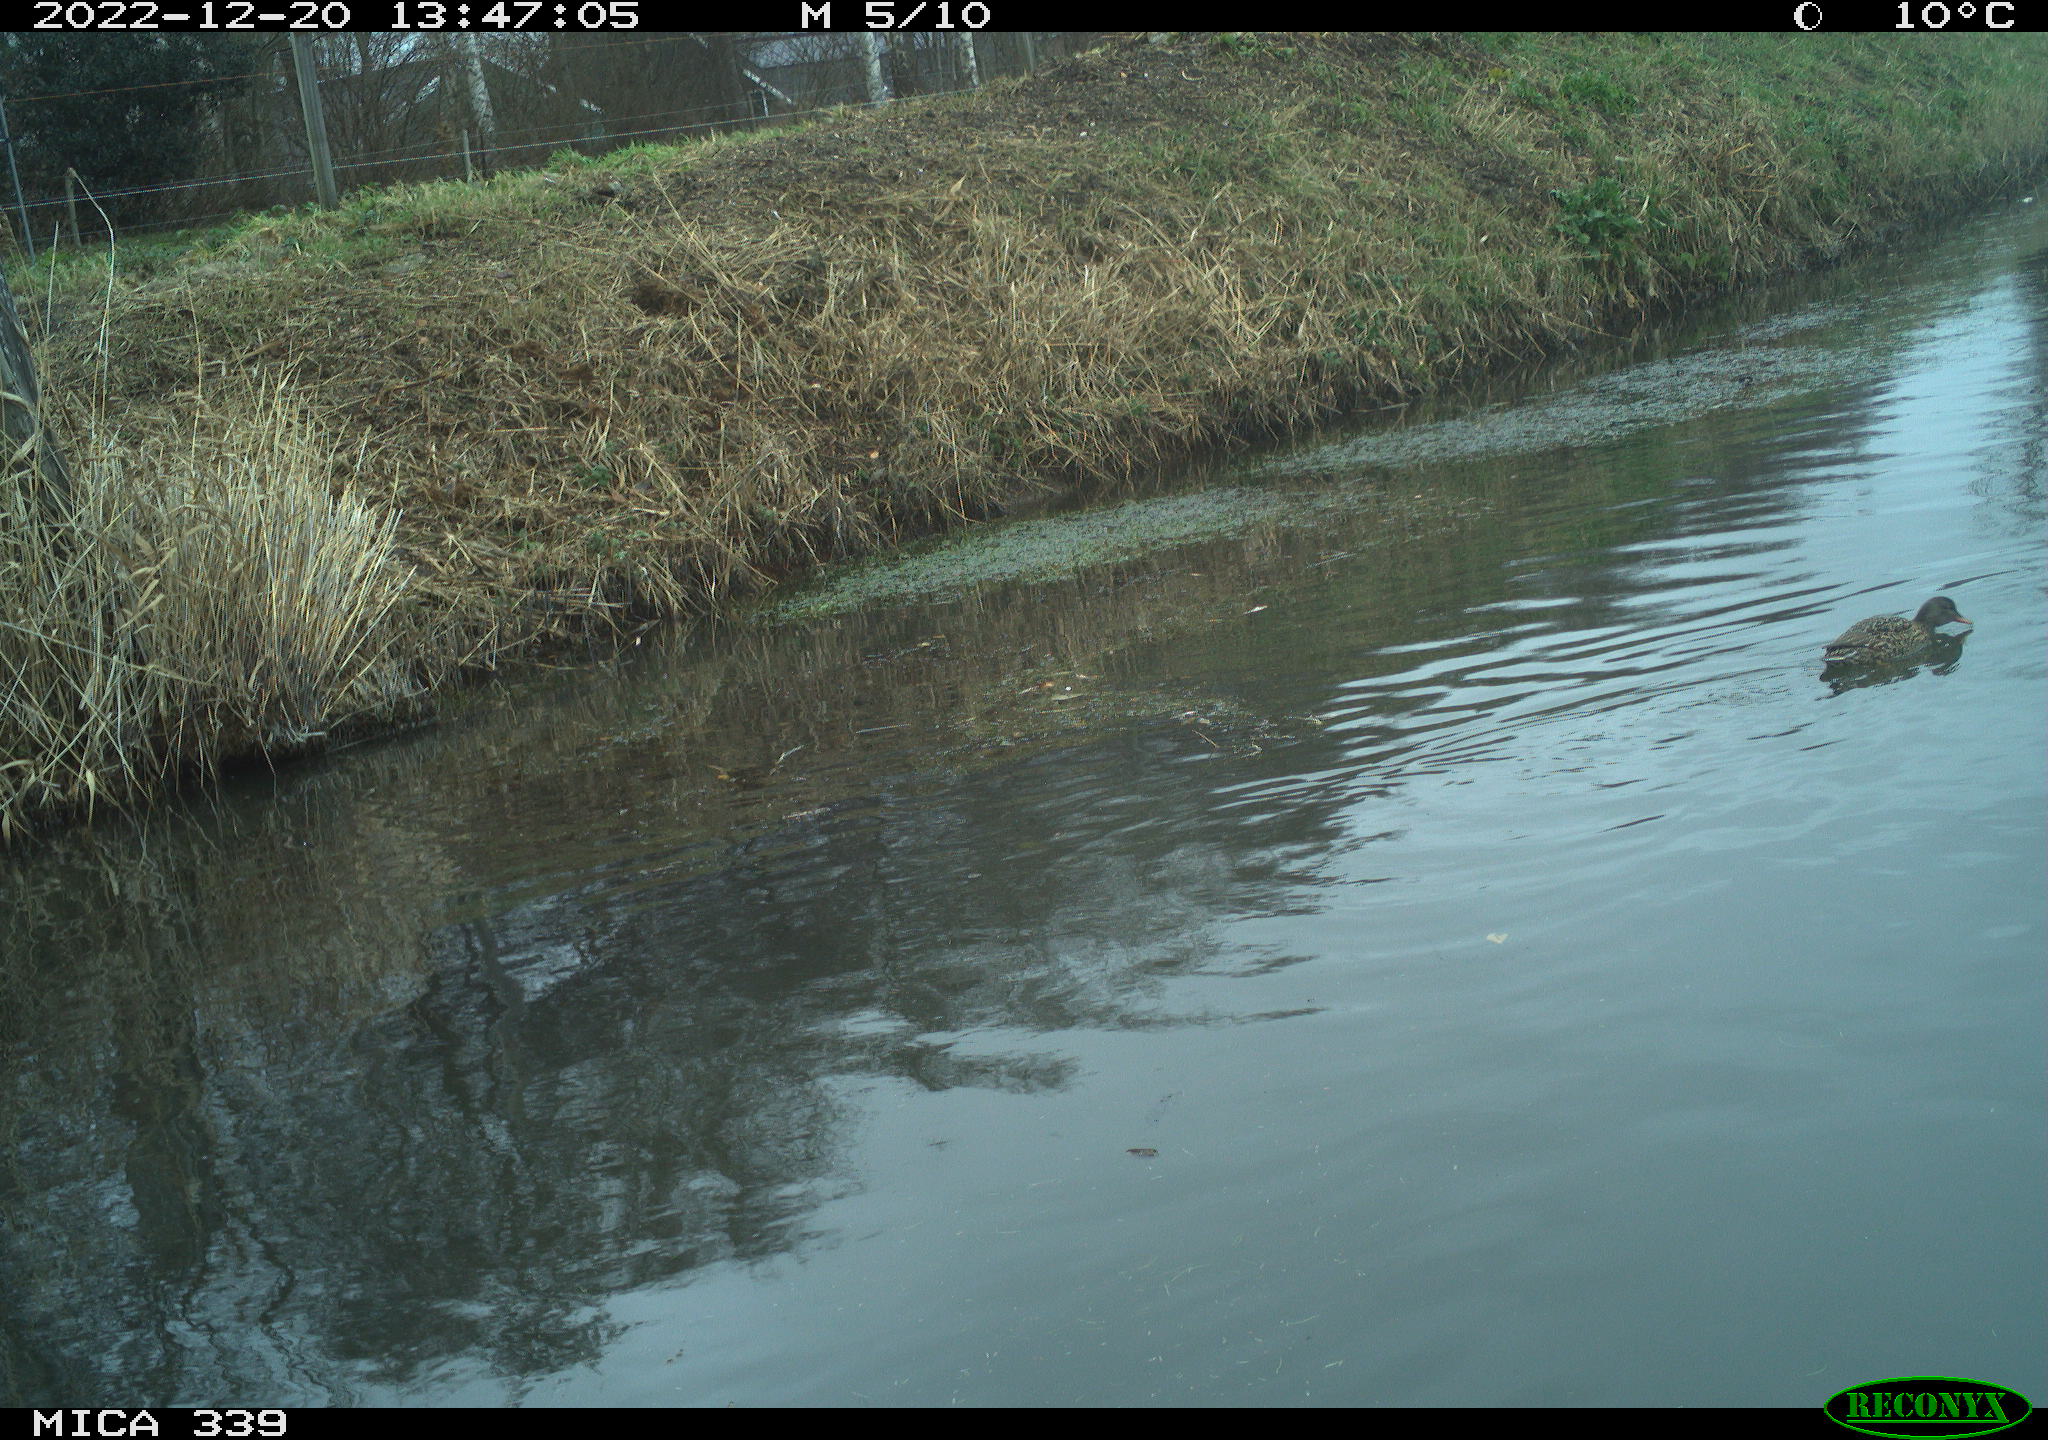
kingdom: Animalia
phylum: Chordata
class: Aves
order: Anseriformes
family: Anatidae
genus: Anas
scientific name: Anas
